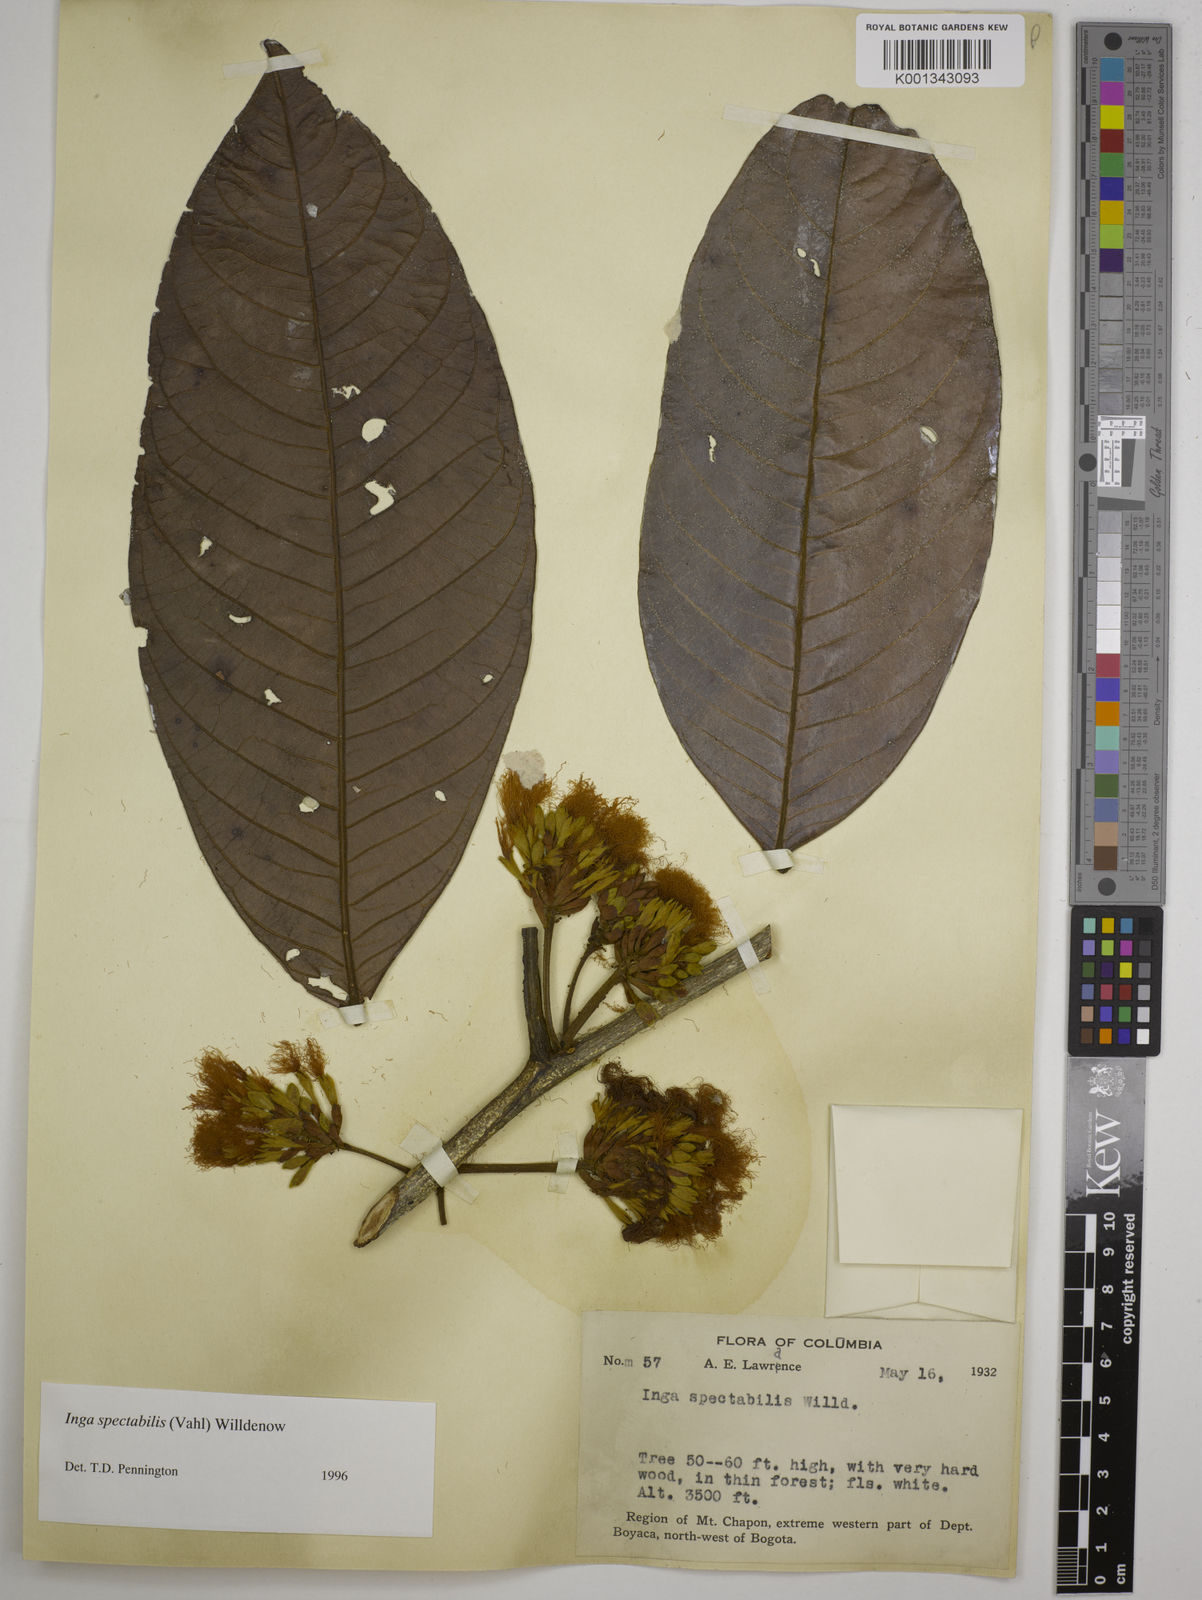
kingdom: Plantae
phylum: Tracheophyta
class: Magnoliopsida
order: Fabales
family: Fabaceae
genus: Inga
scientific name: Inga spectabilis
